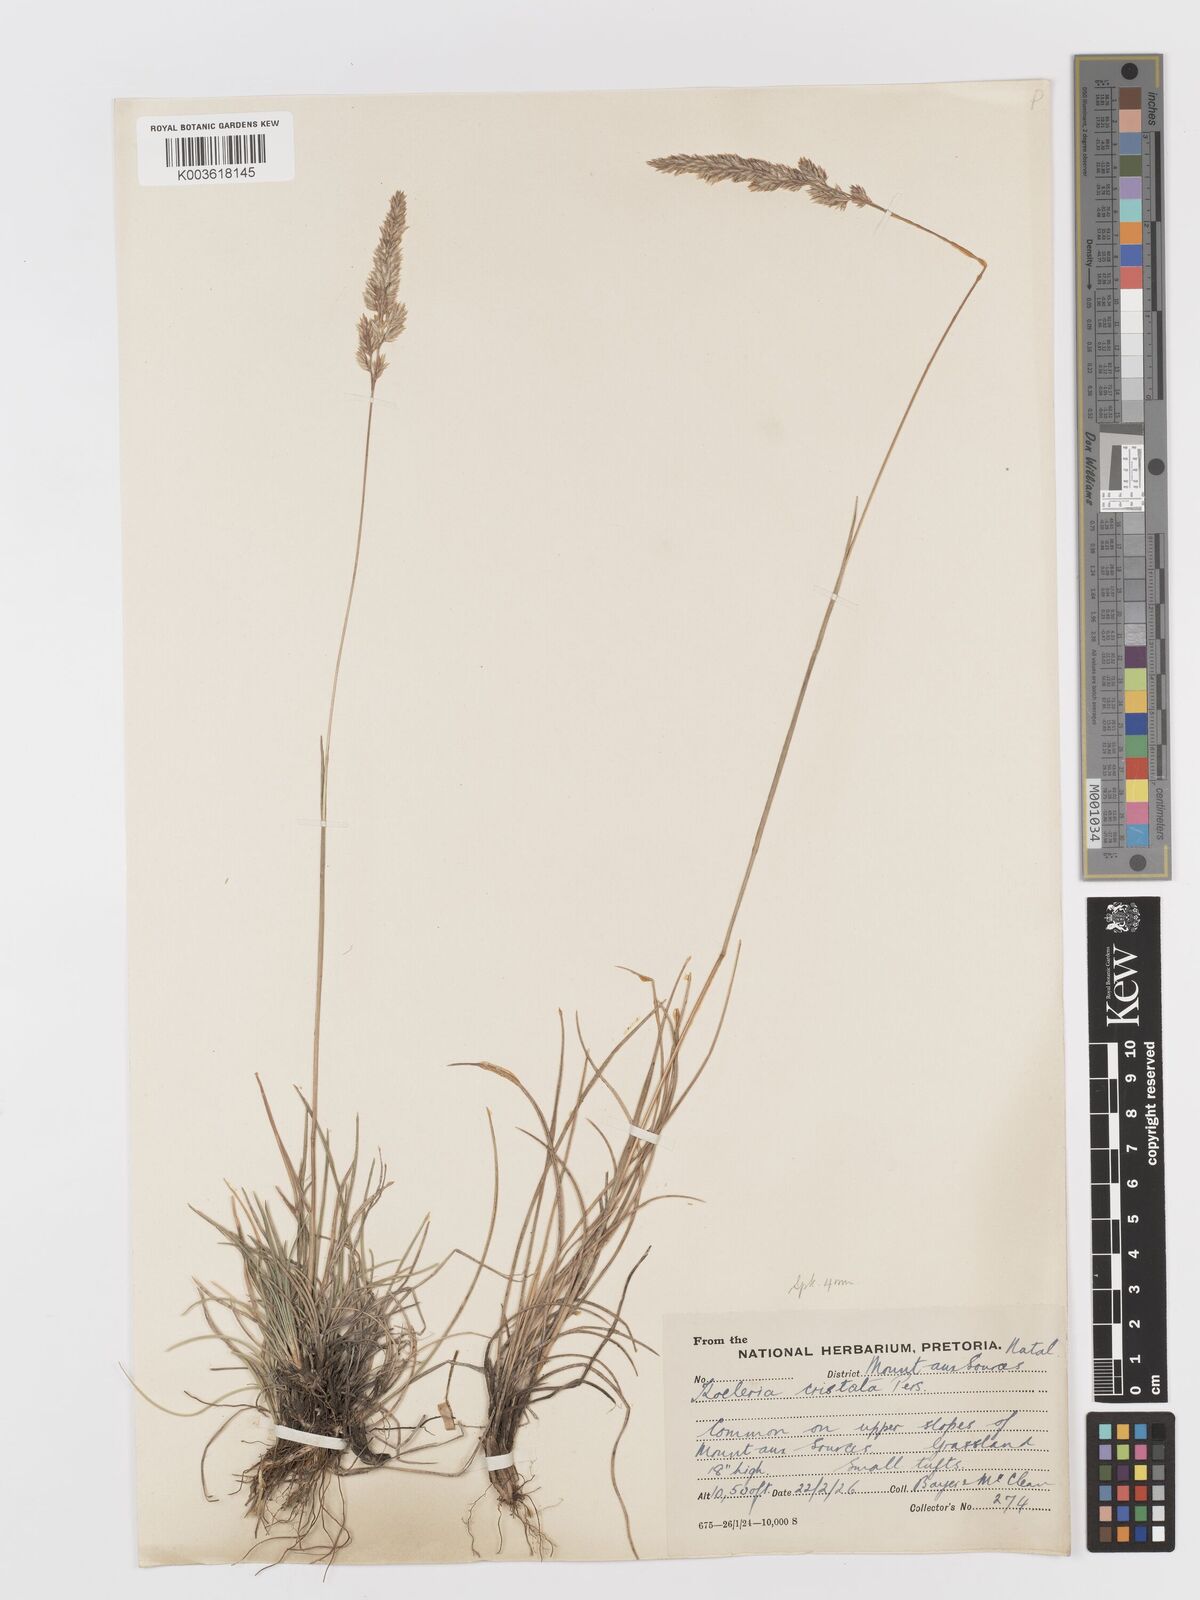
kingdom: Plantae
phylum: Tracheophyta
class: Liliopsida
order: Poales
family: Poaceae
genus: Koeleria
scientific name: Koeleria capensis
